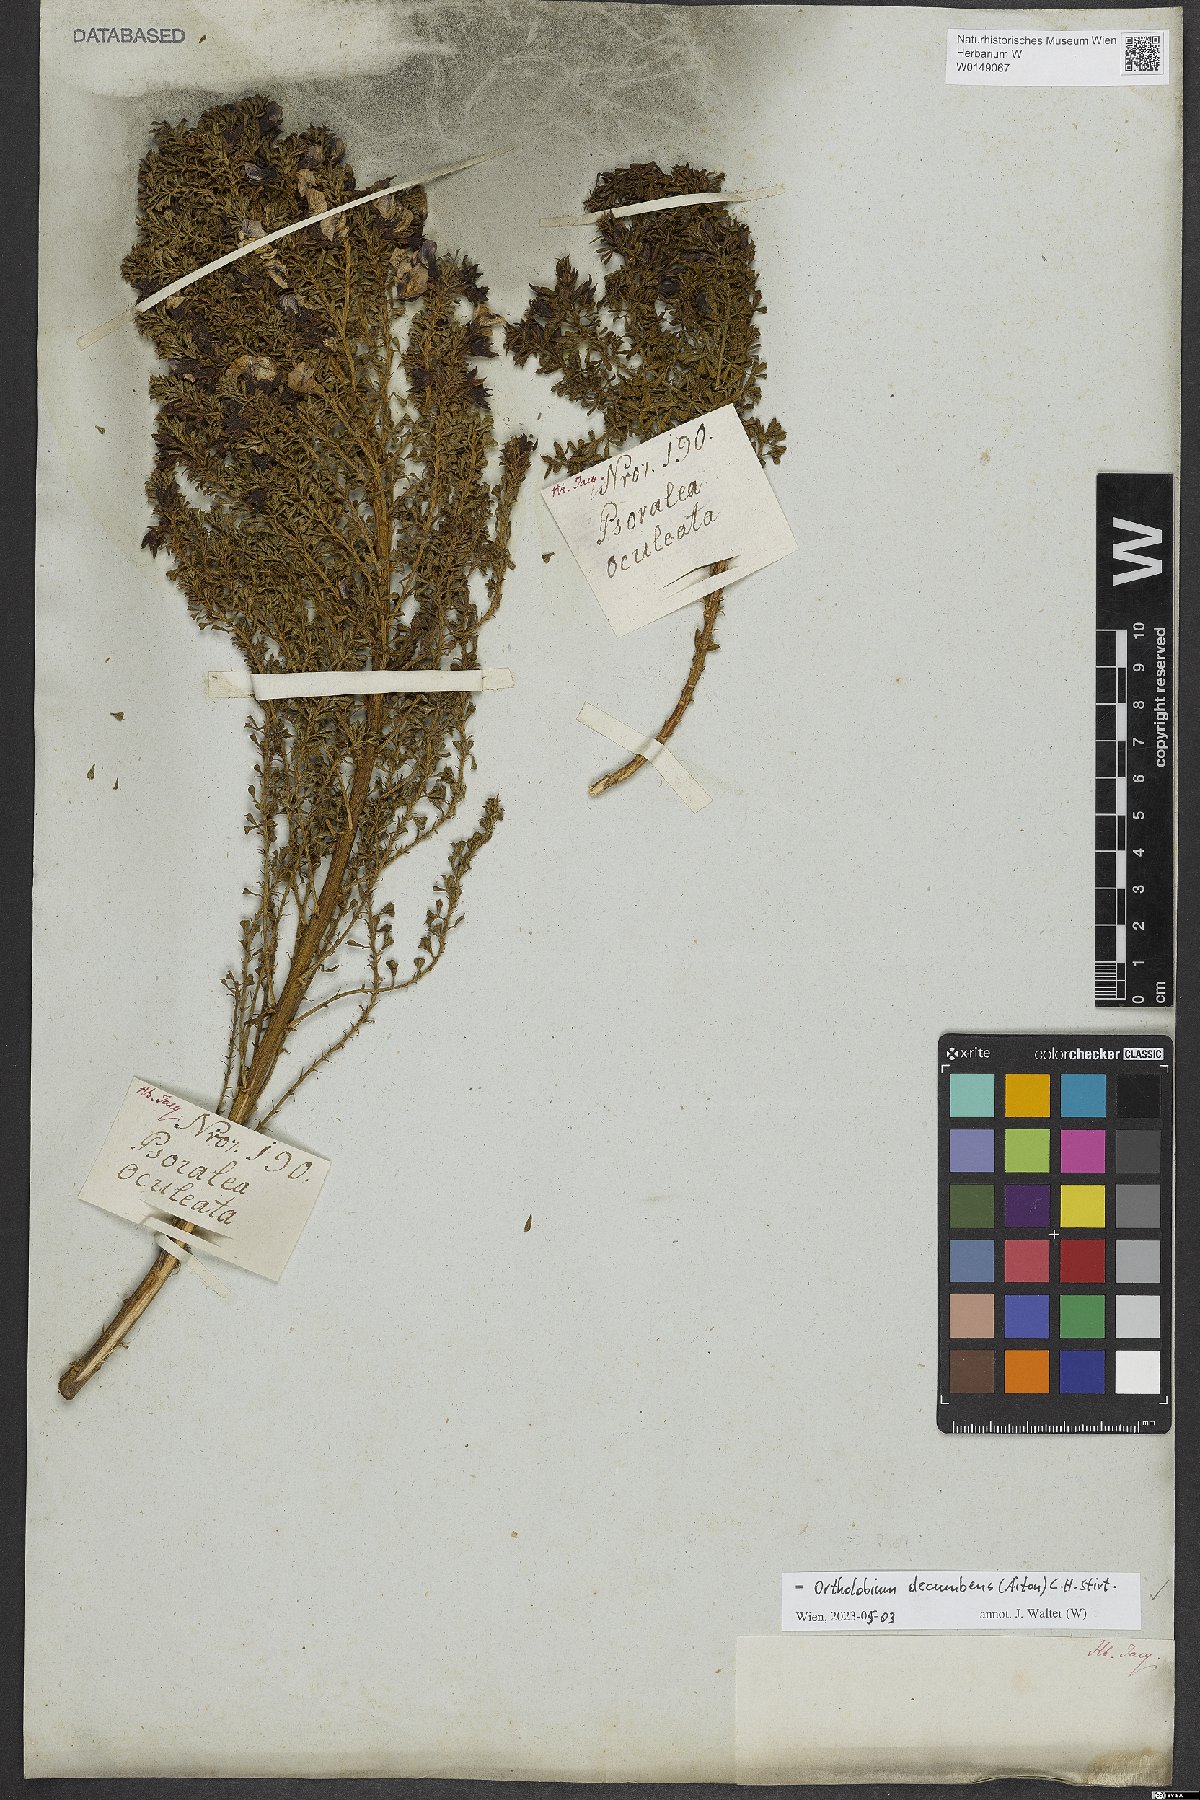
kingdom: Plantae
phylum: Tracheophyta
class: Magnoliopsida
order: Fabales
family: Fabaceae
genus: Psoralea
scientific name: Psoralea Otholobium decumbens
